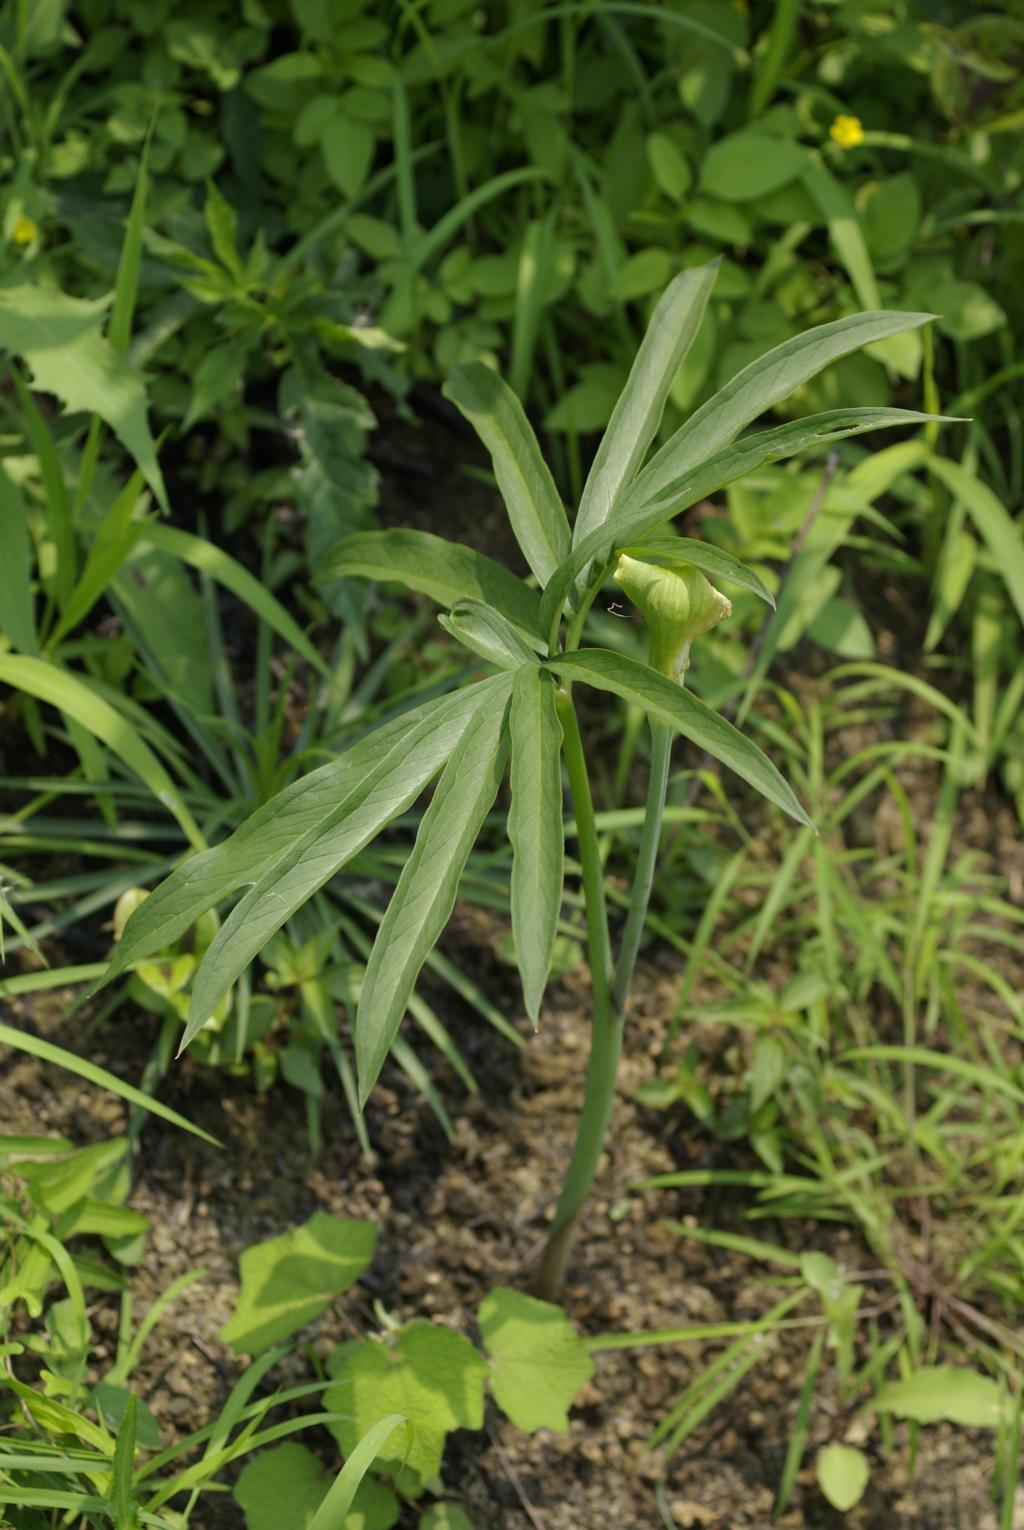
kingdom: Plantae
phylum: Tracheophyta
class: Liliopsida
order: Alismatales
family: Araceae
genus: Arisaema
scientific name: Arisaema heterophyllum
